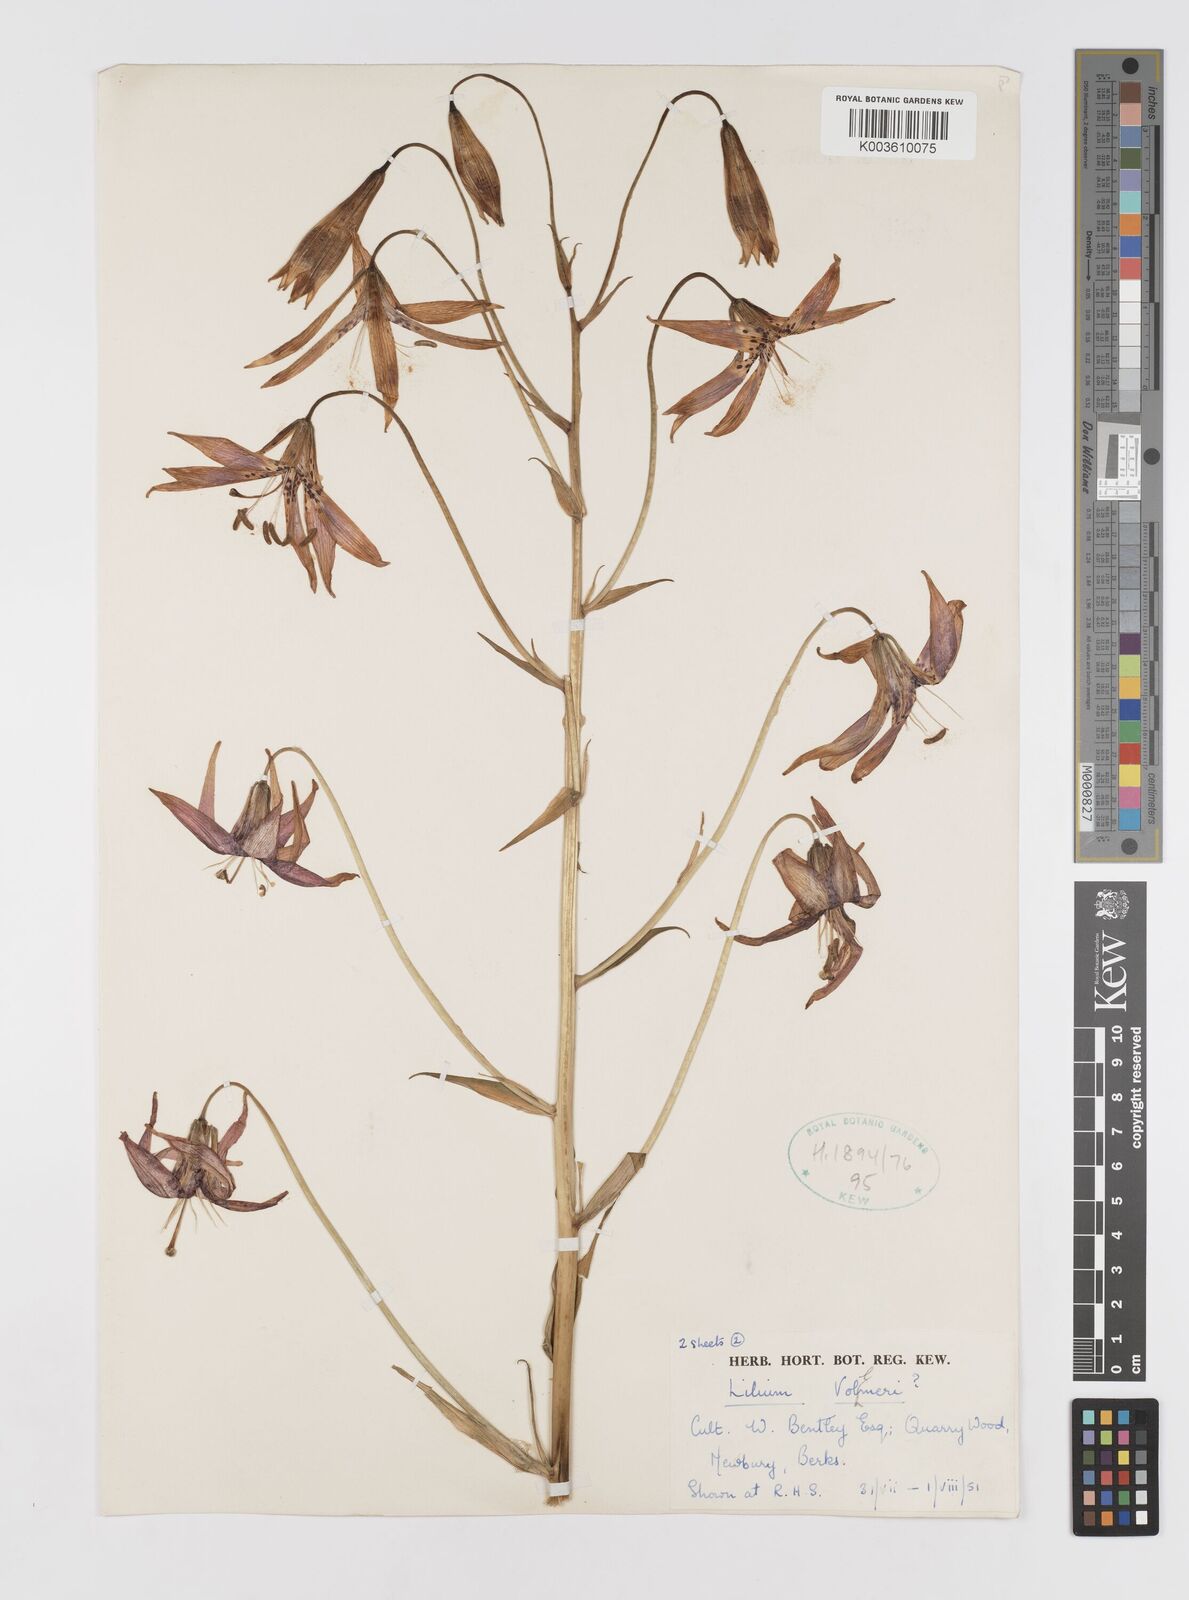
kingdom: Plantae
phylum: Tracheophyta
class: Liliopsida
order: Liliales
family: Liliaceae
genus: Lilium
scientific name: Lilium pardalinum
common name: Panther lily
